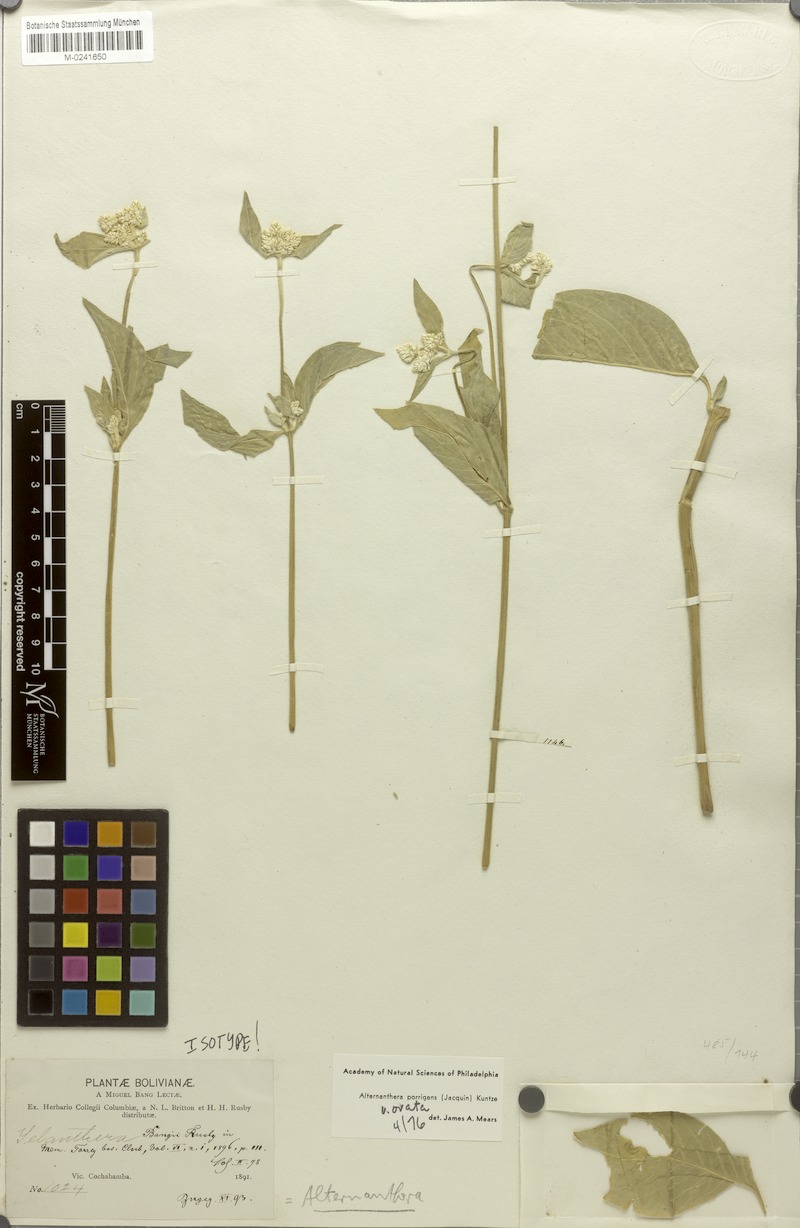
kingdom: Plantae
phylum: Tracheophyta
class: Magnoliopsida
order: Caryophyllales
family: Amaranthaceae
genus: Alternanthera
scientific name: Alternanthera porrigens
